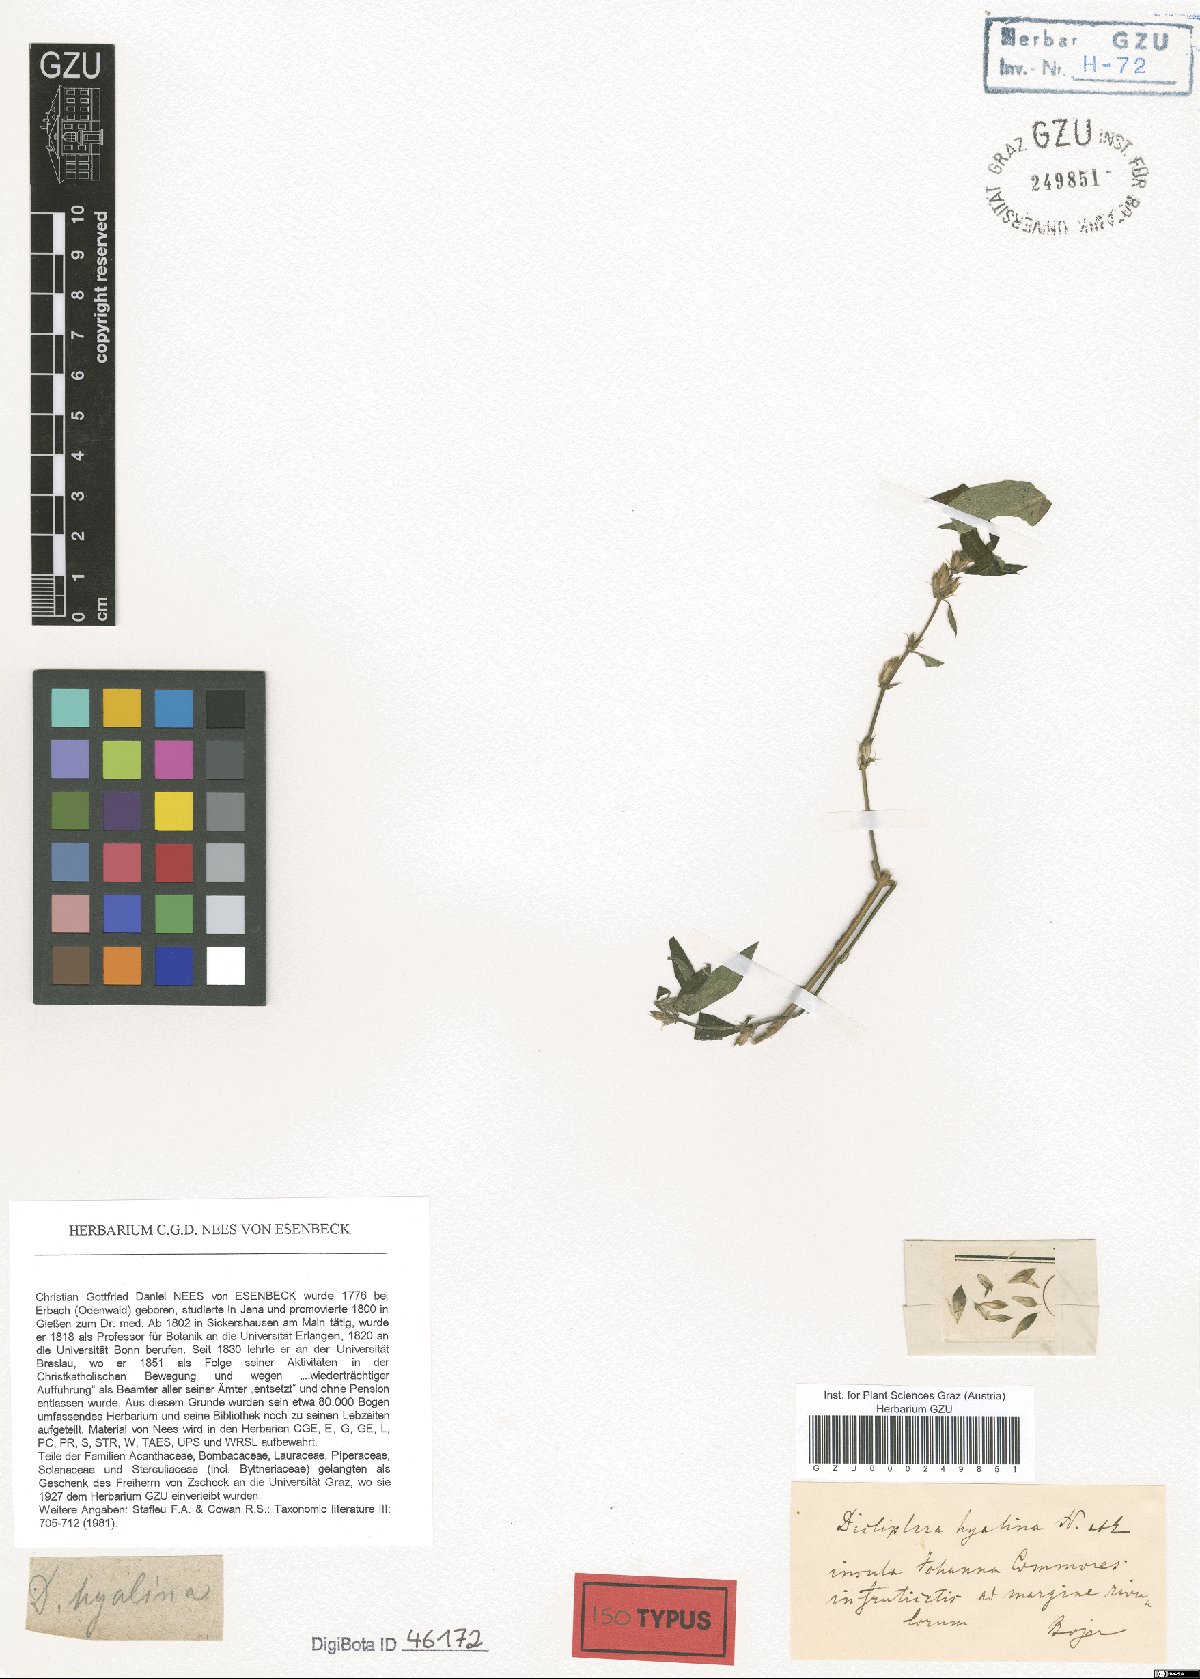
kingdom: Plantae
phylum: Tracheophyta
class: Magnoliopsida
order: Lamiales
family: Acanthaceae
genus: Dicliptera
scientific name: Dicliptera hyalina
